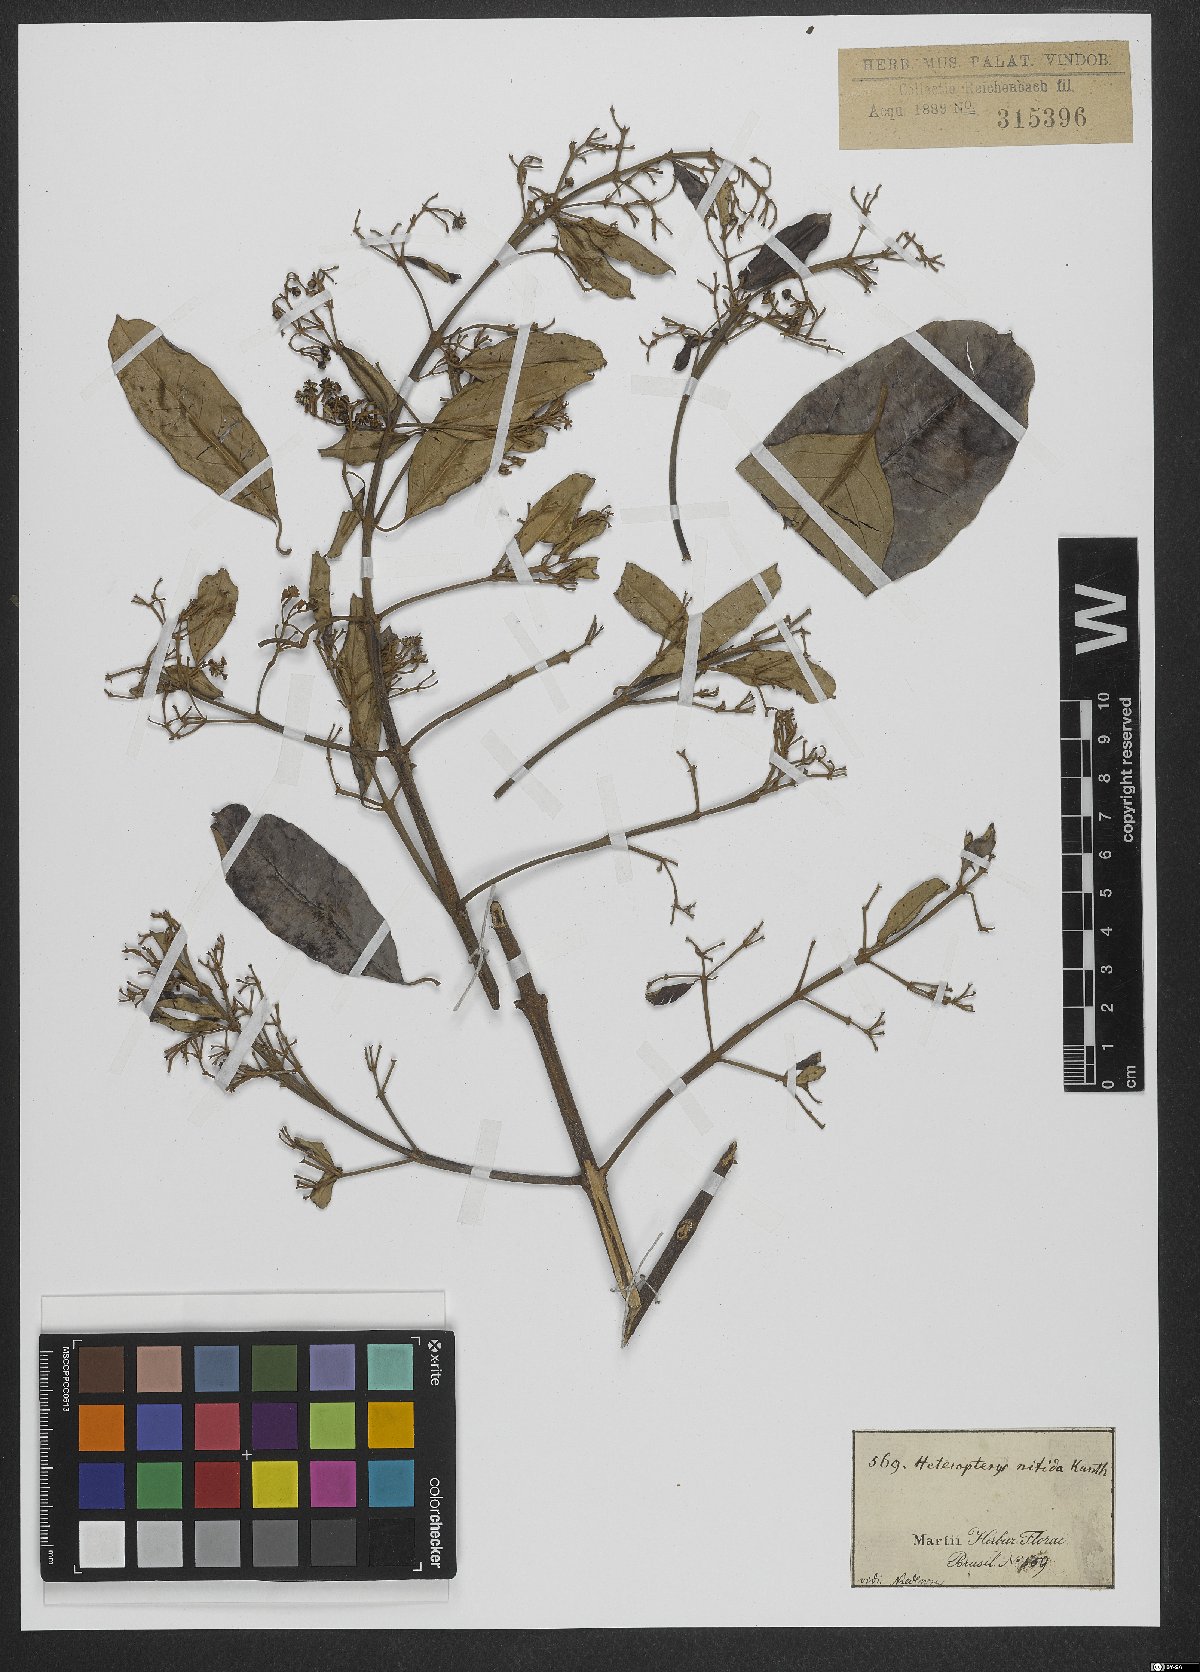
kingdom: Plantae
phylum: Tracheophyta
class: Magnoliopsida
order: Malpighiales
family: Malpighiaceae
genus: Heteropterys
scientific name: Heteropterys nitida
